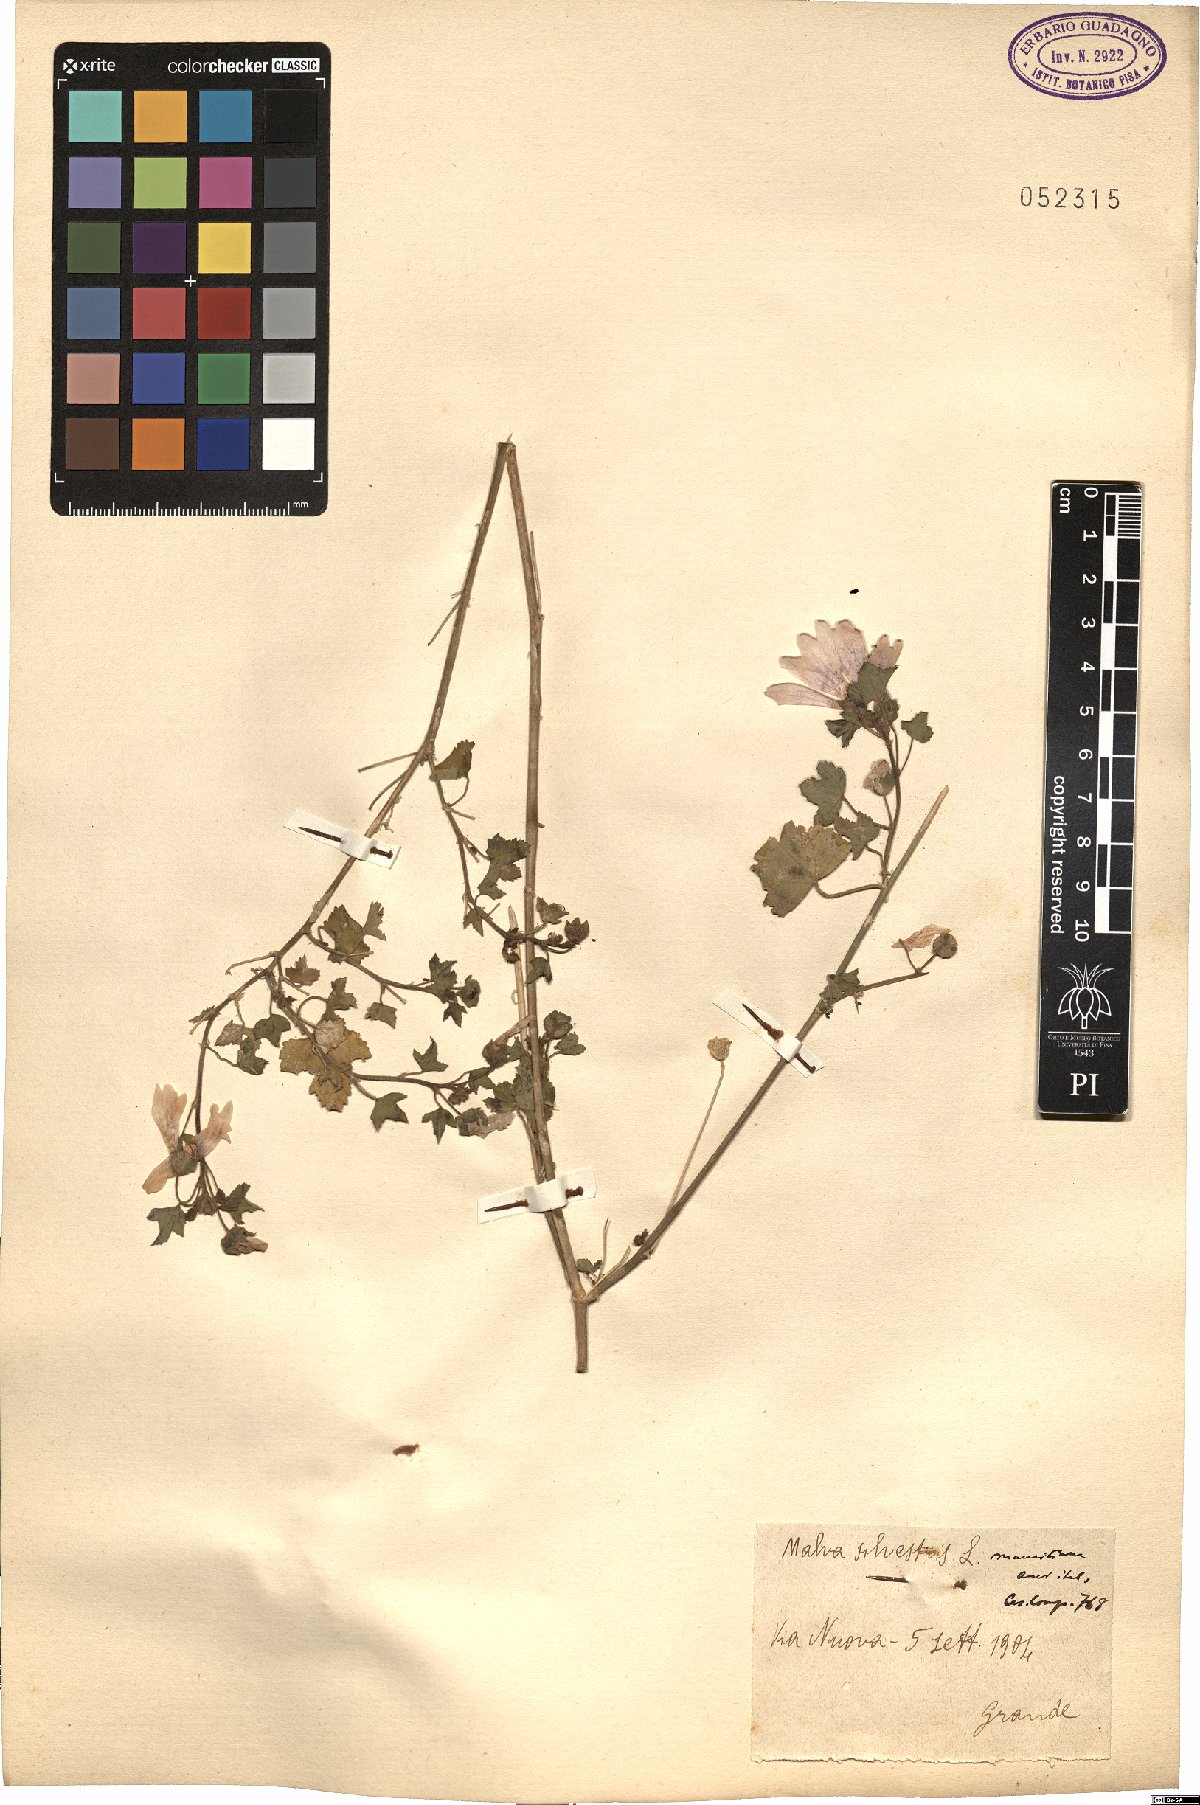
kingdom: Plantae
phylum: Tracheophyta
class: Magnoliopsida
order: Malvales
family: Malvaceae
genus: Malva
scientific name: Malva sylvestris
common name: Common mallow
